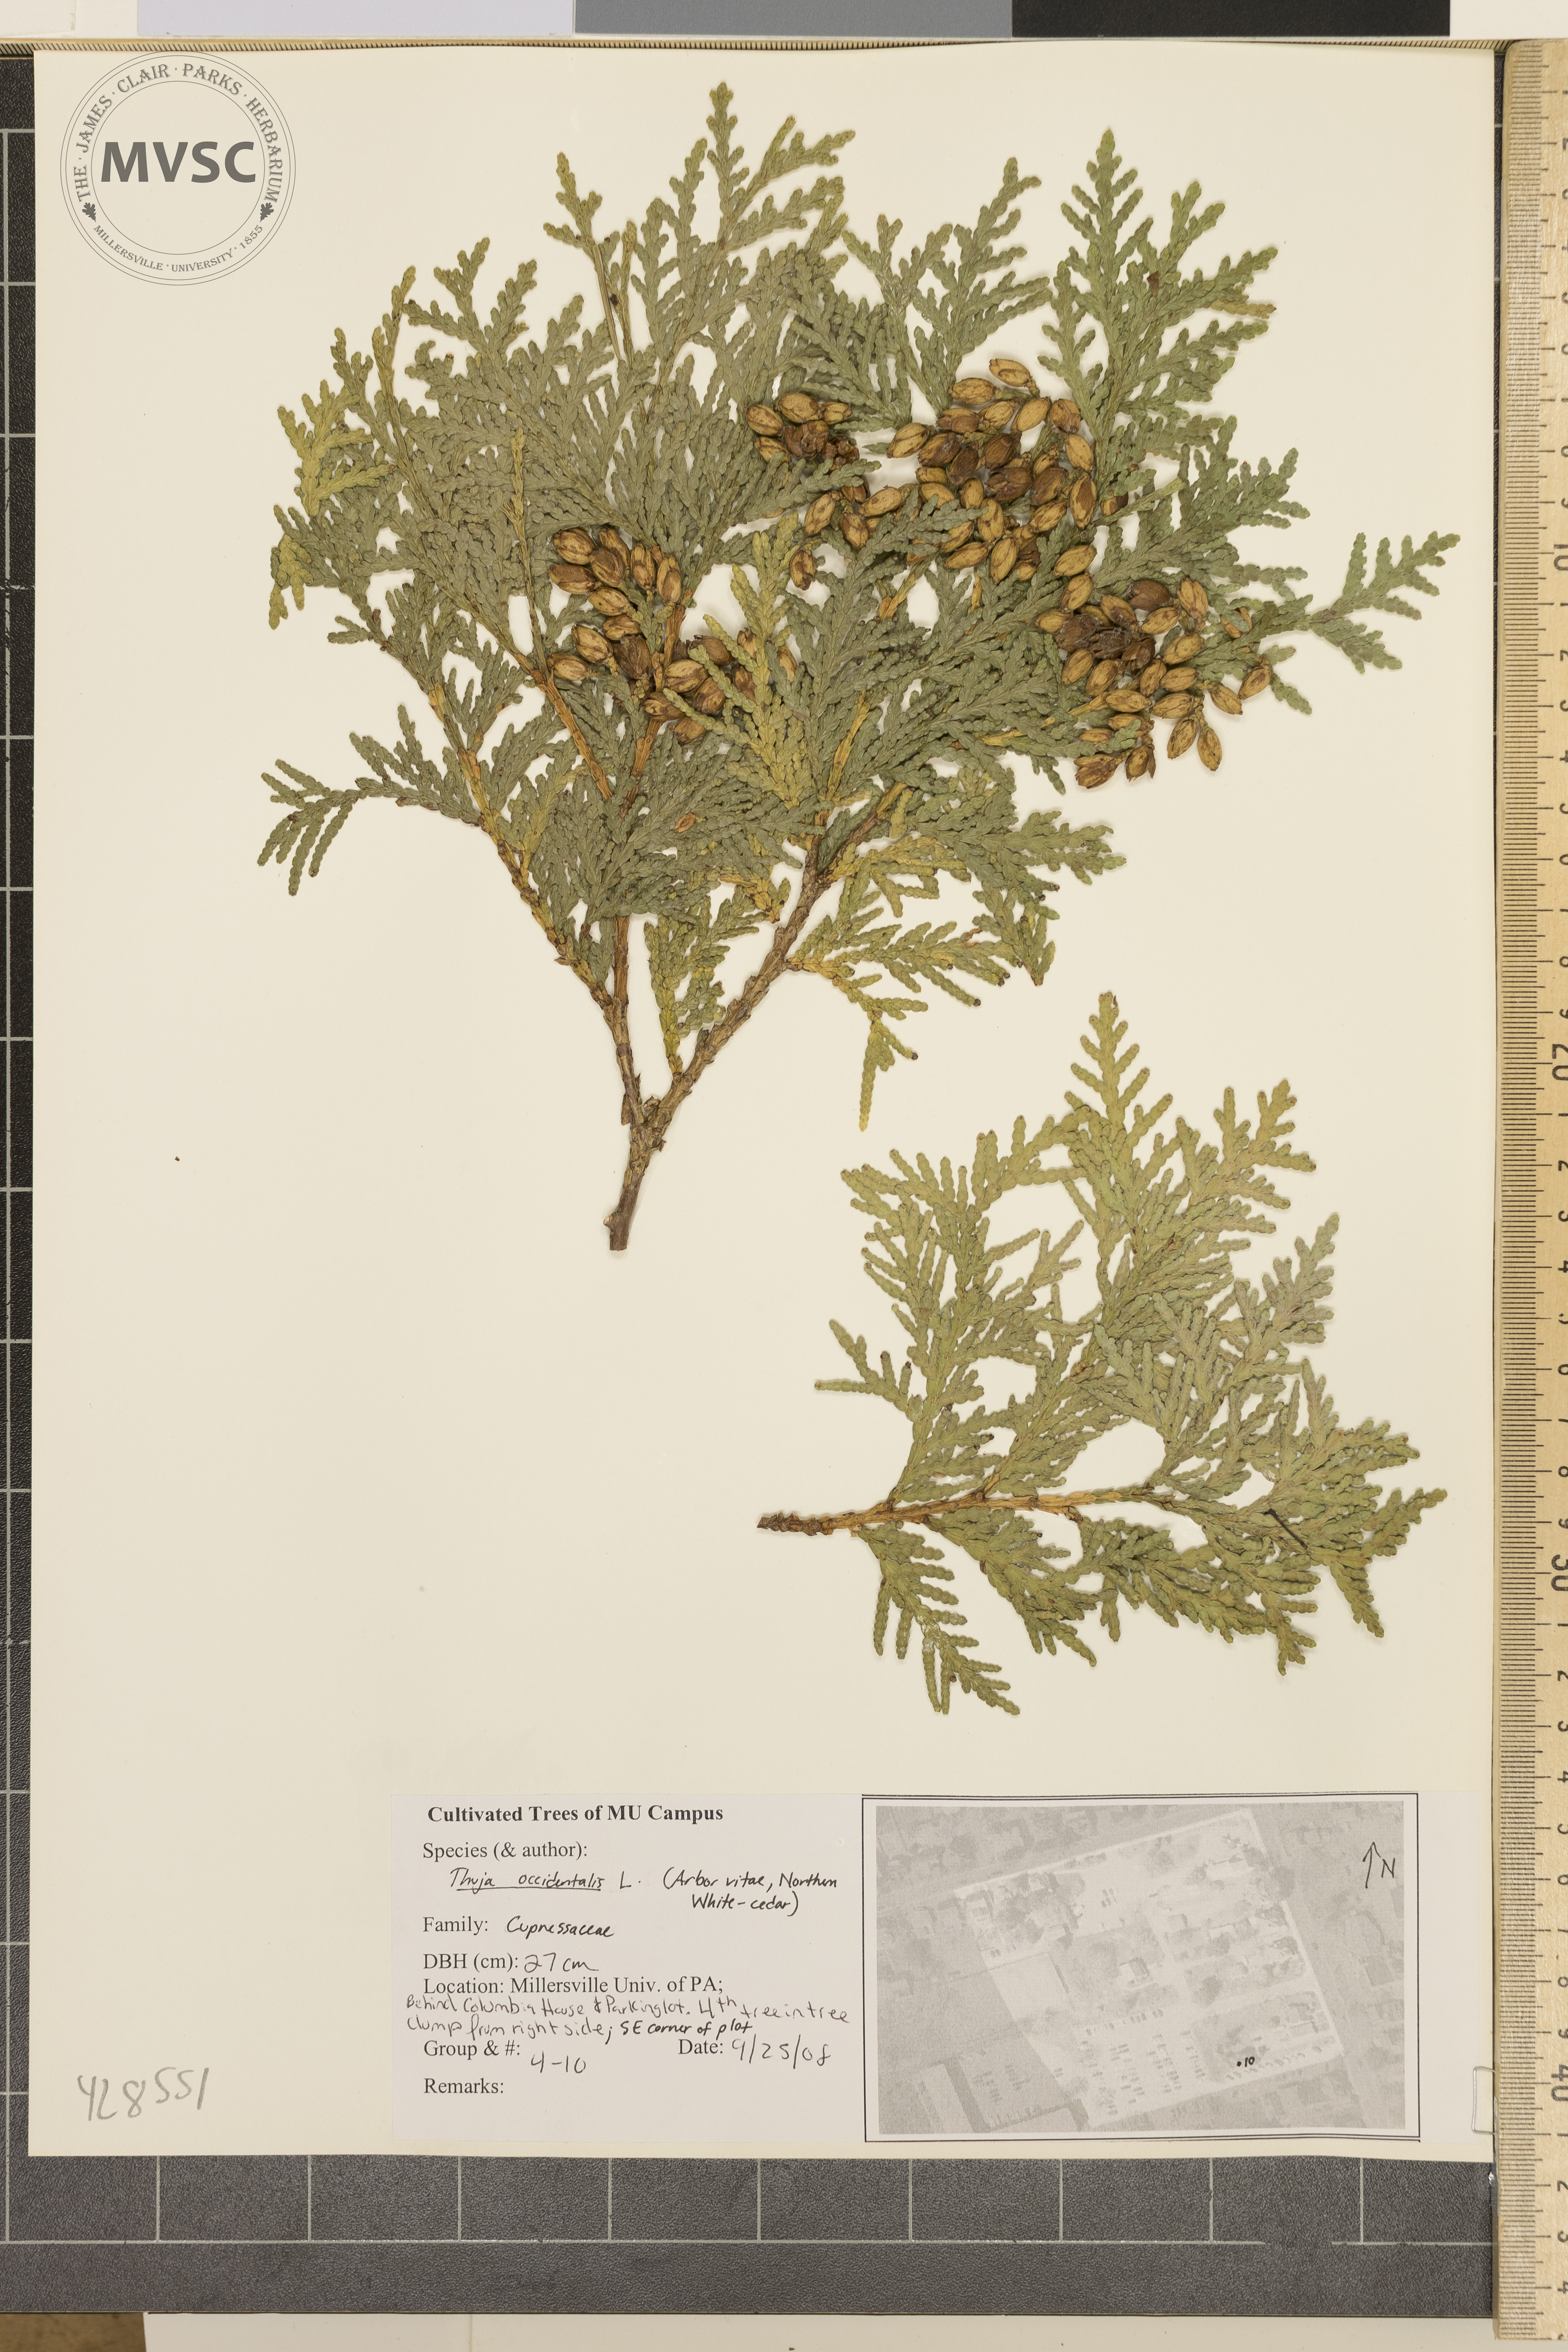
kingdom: Plantae
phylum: Tracheophyta
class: Pinopsida
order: Pinales
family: Cupressaceae
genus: Thuja
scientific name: Thuja occidentalis
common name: Arborvitae
